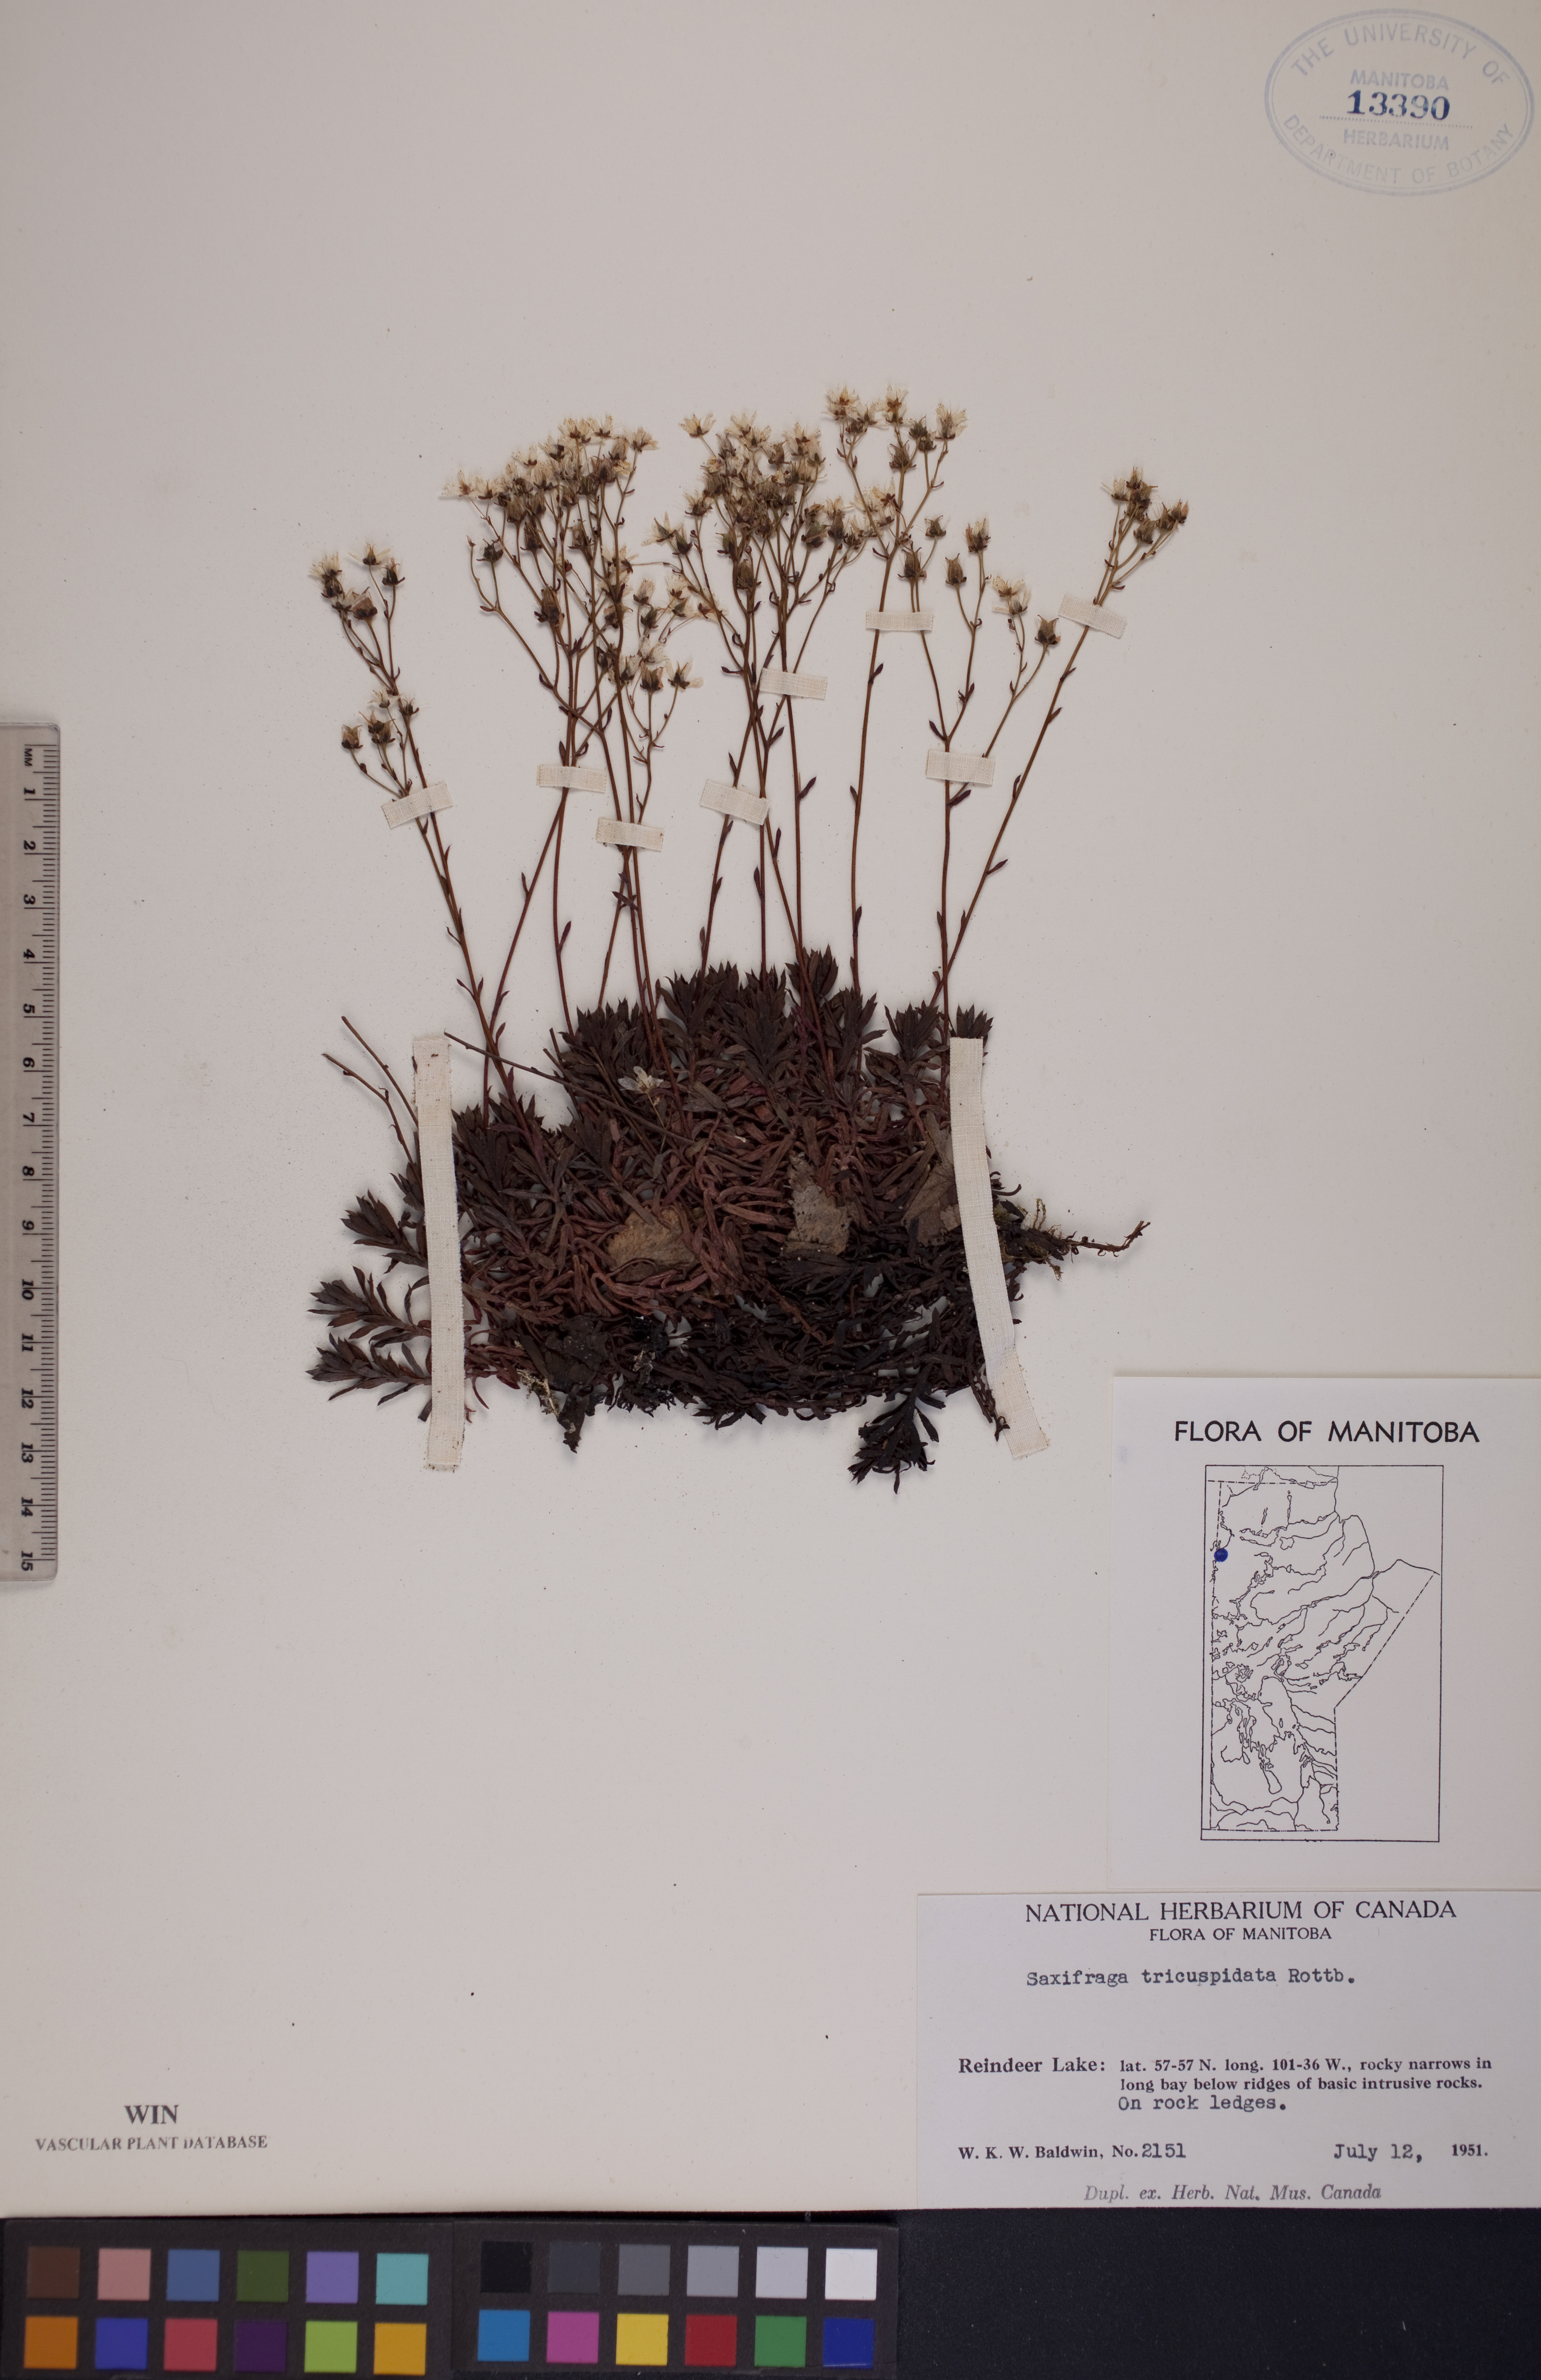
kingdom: Plantae
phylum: Tracheophyta
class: Magnoliopsida
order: Saxifragales
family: Saxifragaceae
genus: Saxifraga
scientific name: Saxifraga tricuspidata
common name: Prickly saxifrage
